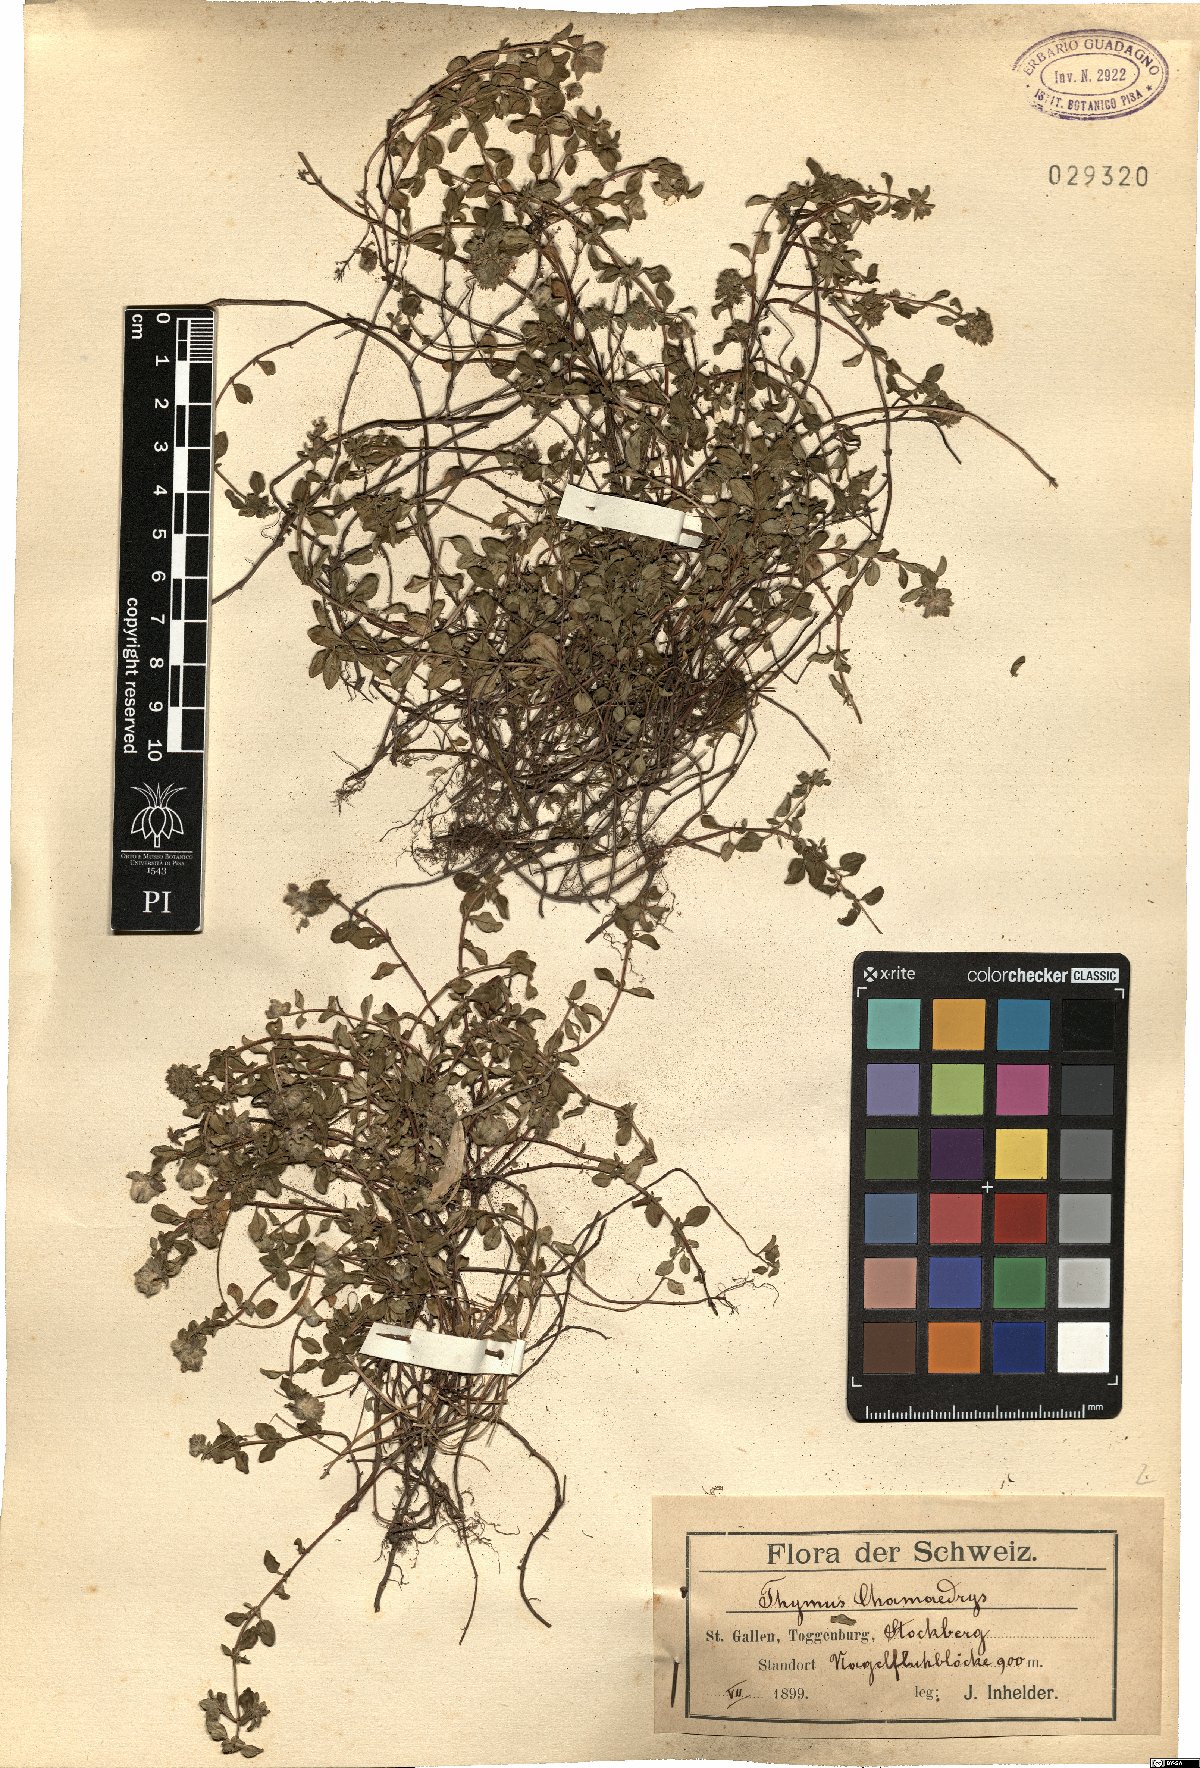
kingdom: Plantae
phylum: Tracheophyta
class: Magnoliopsida
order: Lamiales
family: Lamiaceae
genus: Thymus
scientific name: Thymus pulegioides
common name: Large thyme
